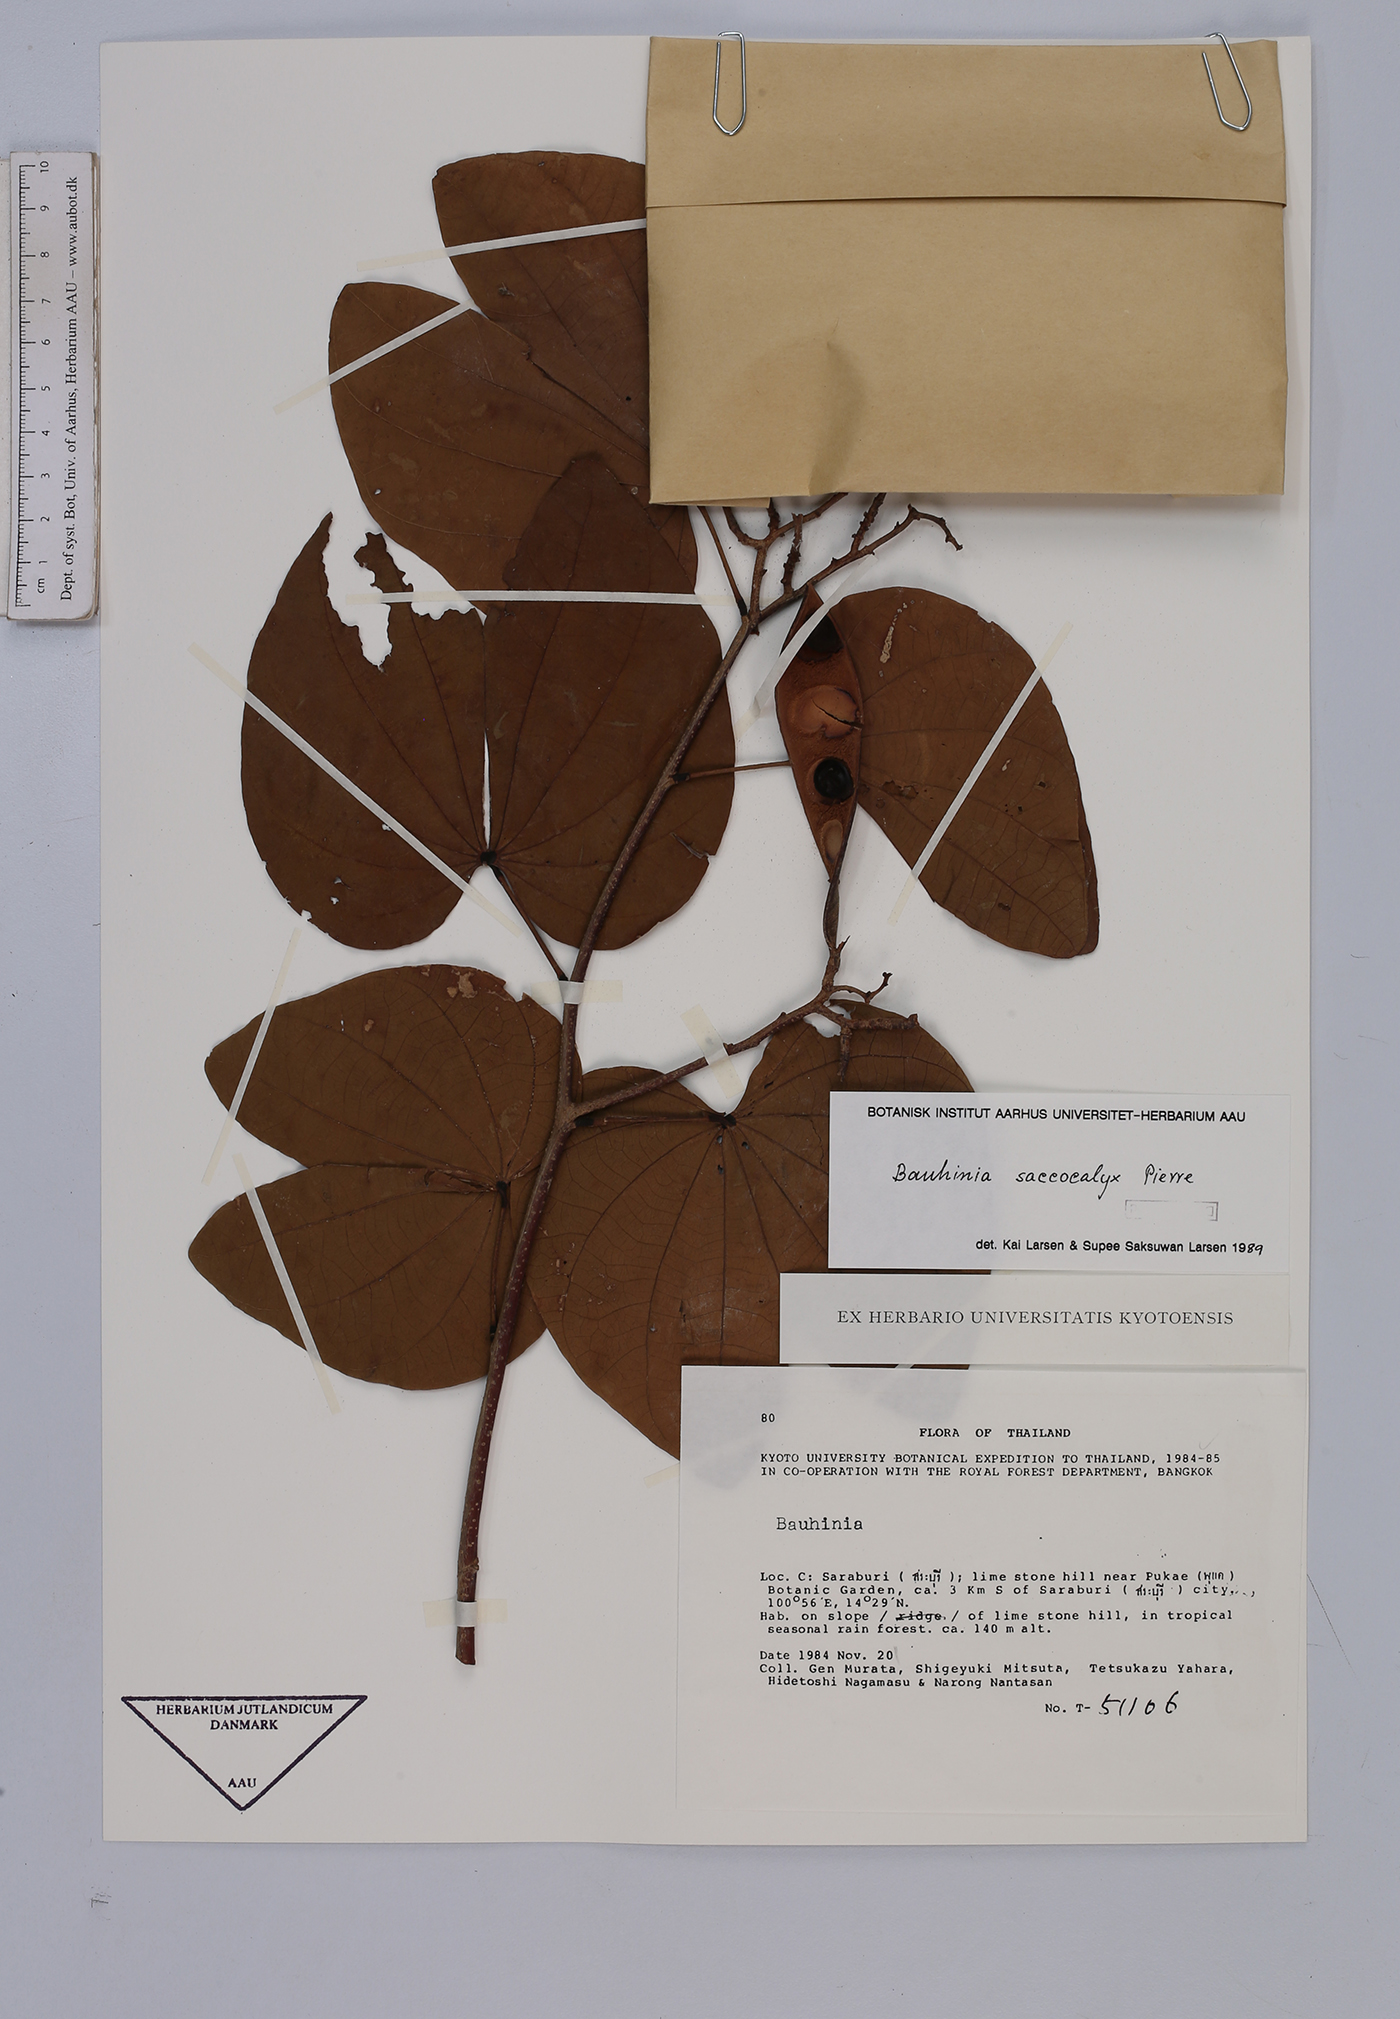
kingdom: Plantae
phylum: Tracheophyta
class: Magnoliopsida
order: Fabales
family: Fabaceae
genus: Bauhinia
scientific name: Bauhinia saccocalyx
